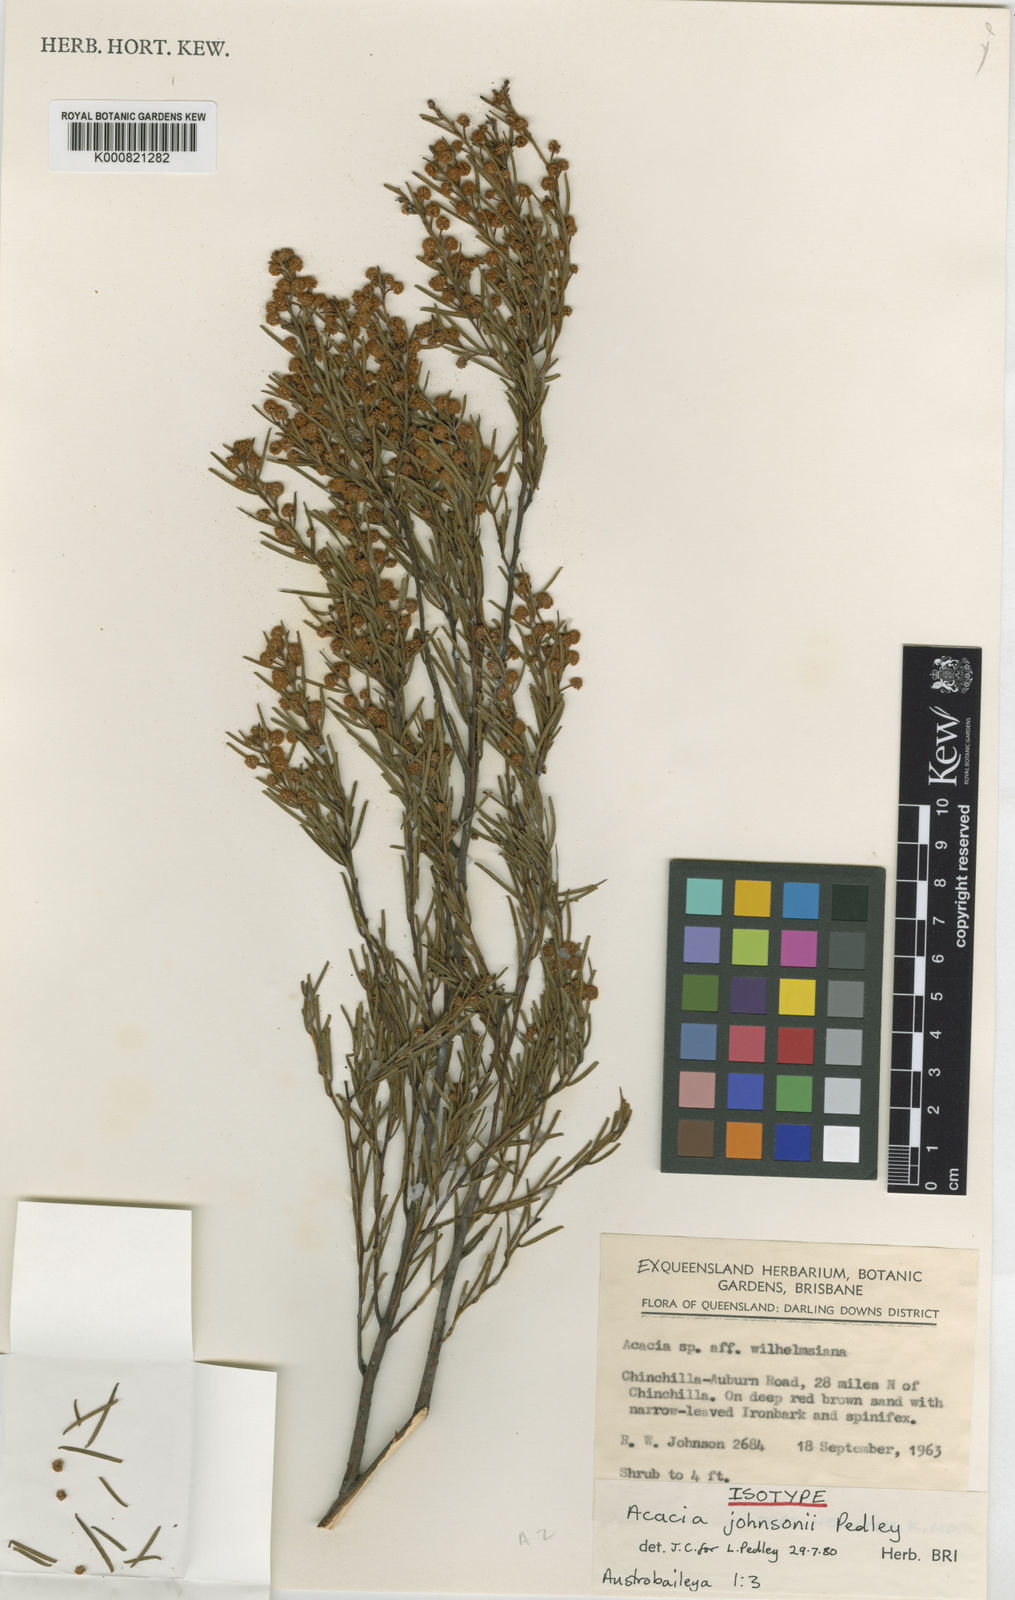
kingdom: Plantae
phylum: Tracheophyta
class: Magnoliopsida
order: Fabales
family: Fabaceae
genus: Acacia
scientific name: Acacia johnsonii
